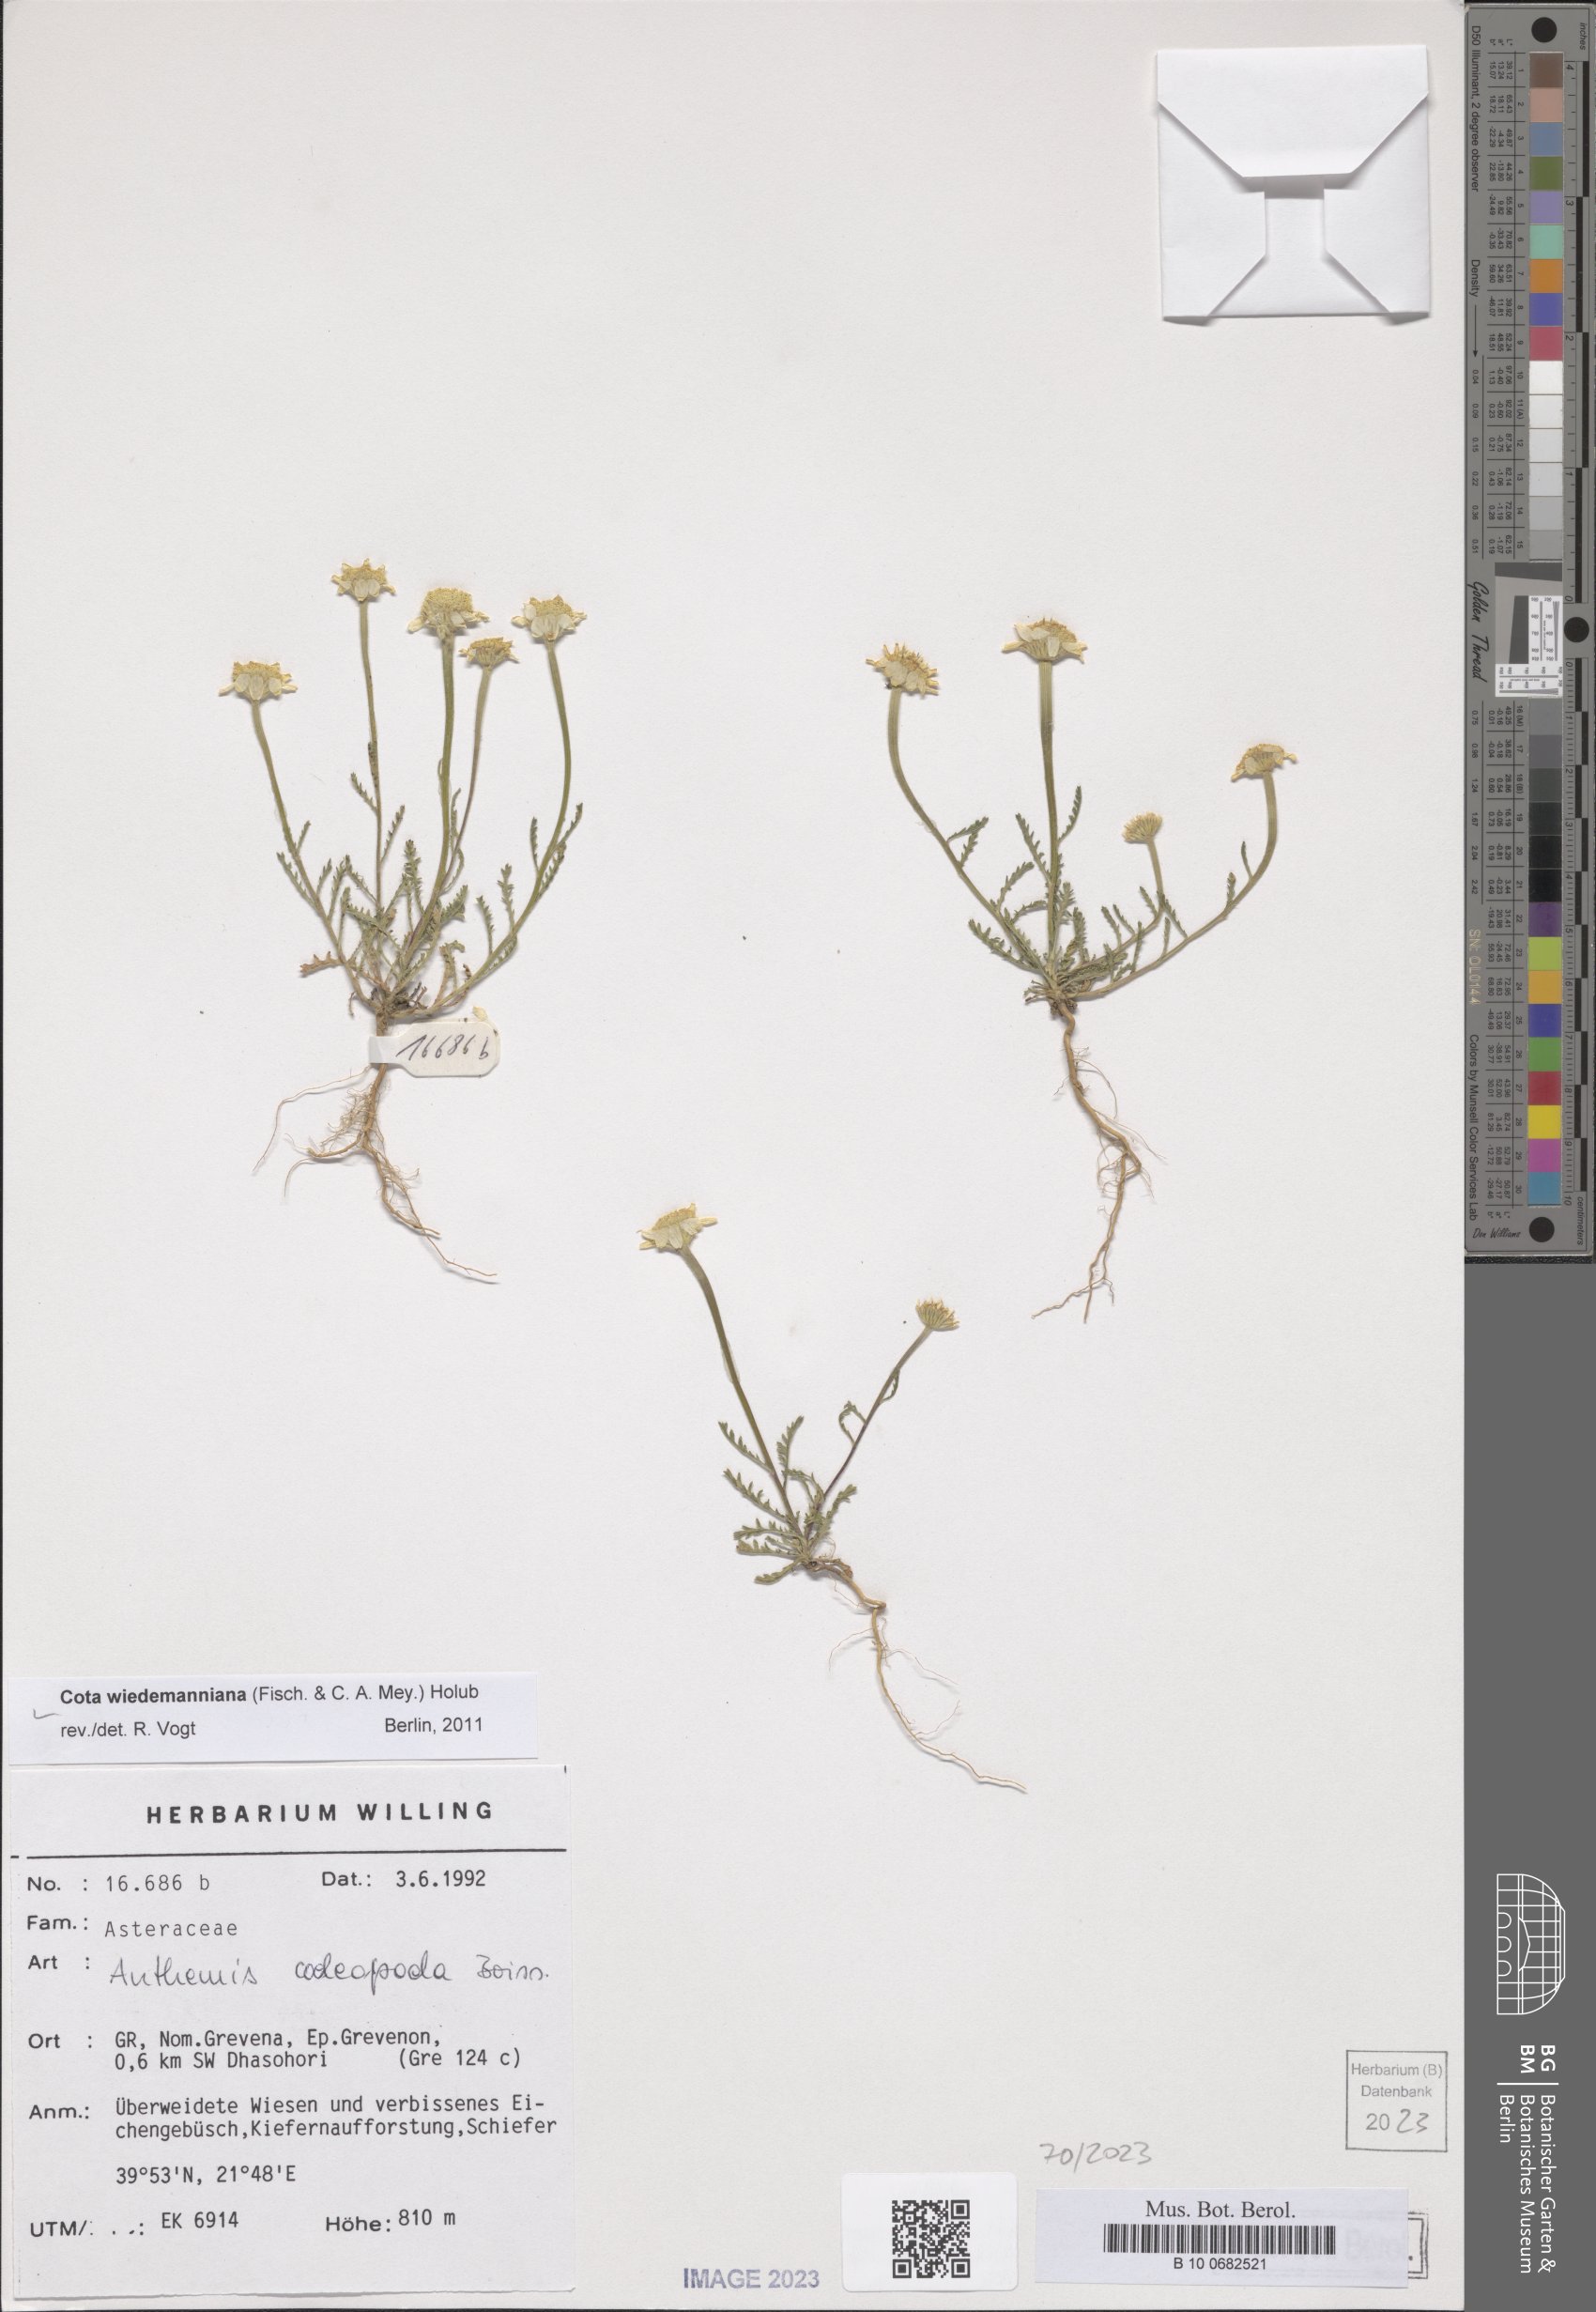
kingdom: Plantae
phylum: Tracheophyta
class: Magnoliopsida
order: Asterales
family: Asteraceae
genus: Cota
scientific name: Cota wiedemanniana
